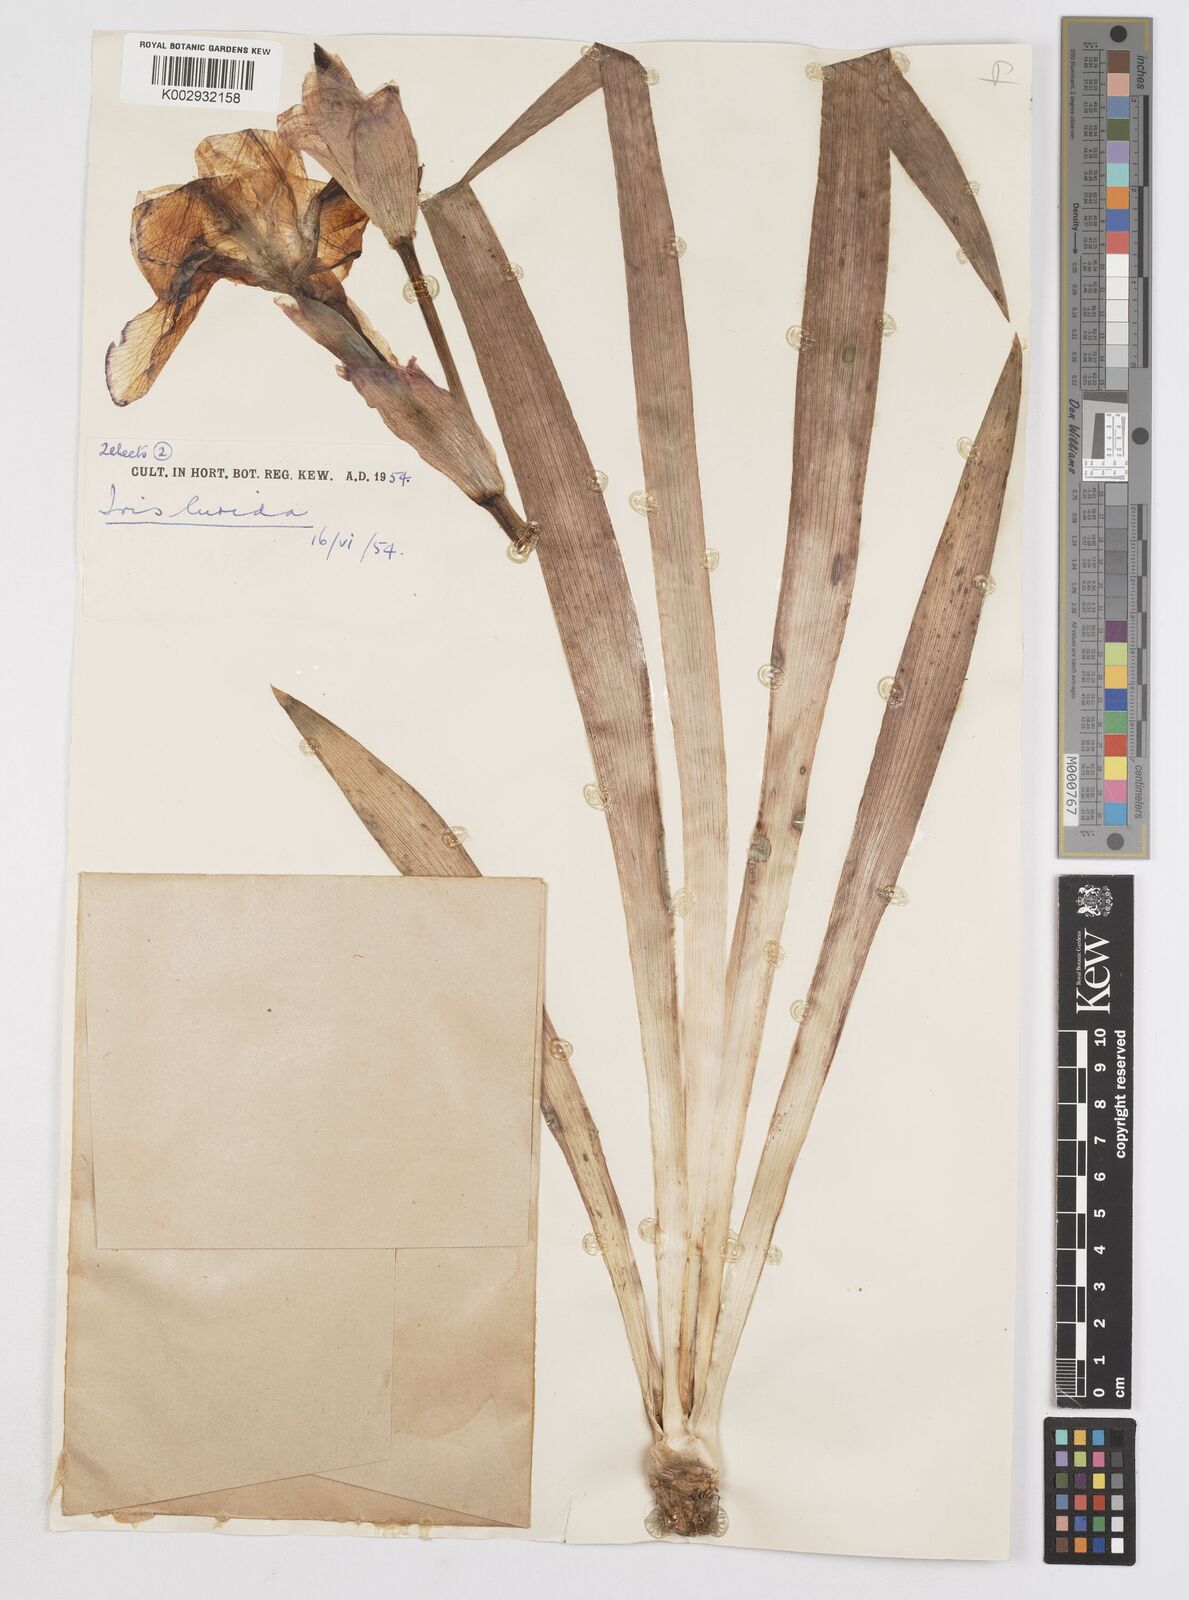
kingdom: Plantae
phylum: Tracheophyta
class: Liliopsida
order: Asparagales
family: Iridaceae
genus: Iris
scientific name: Iris sari
